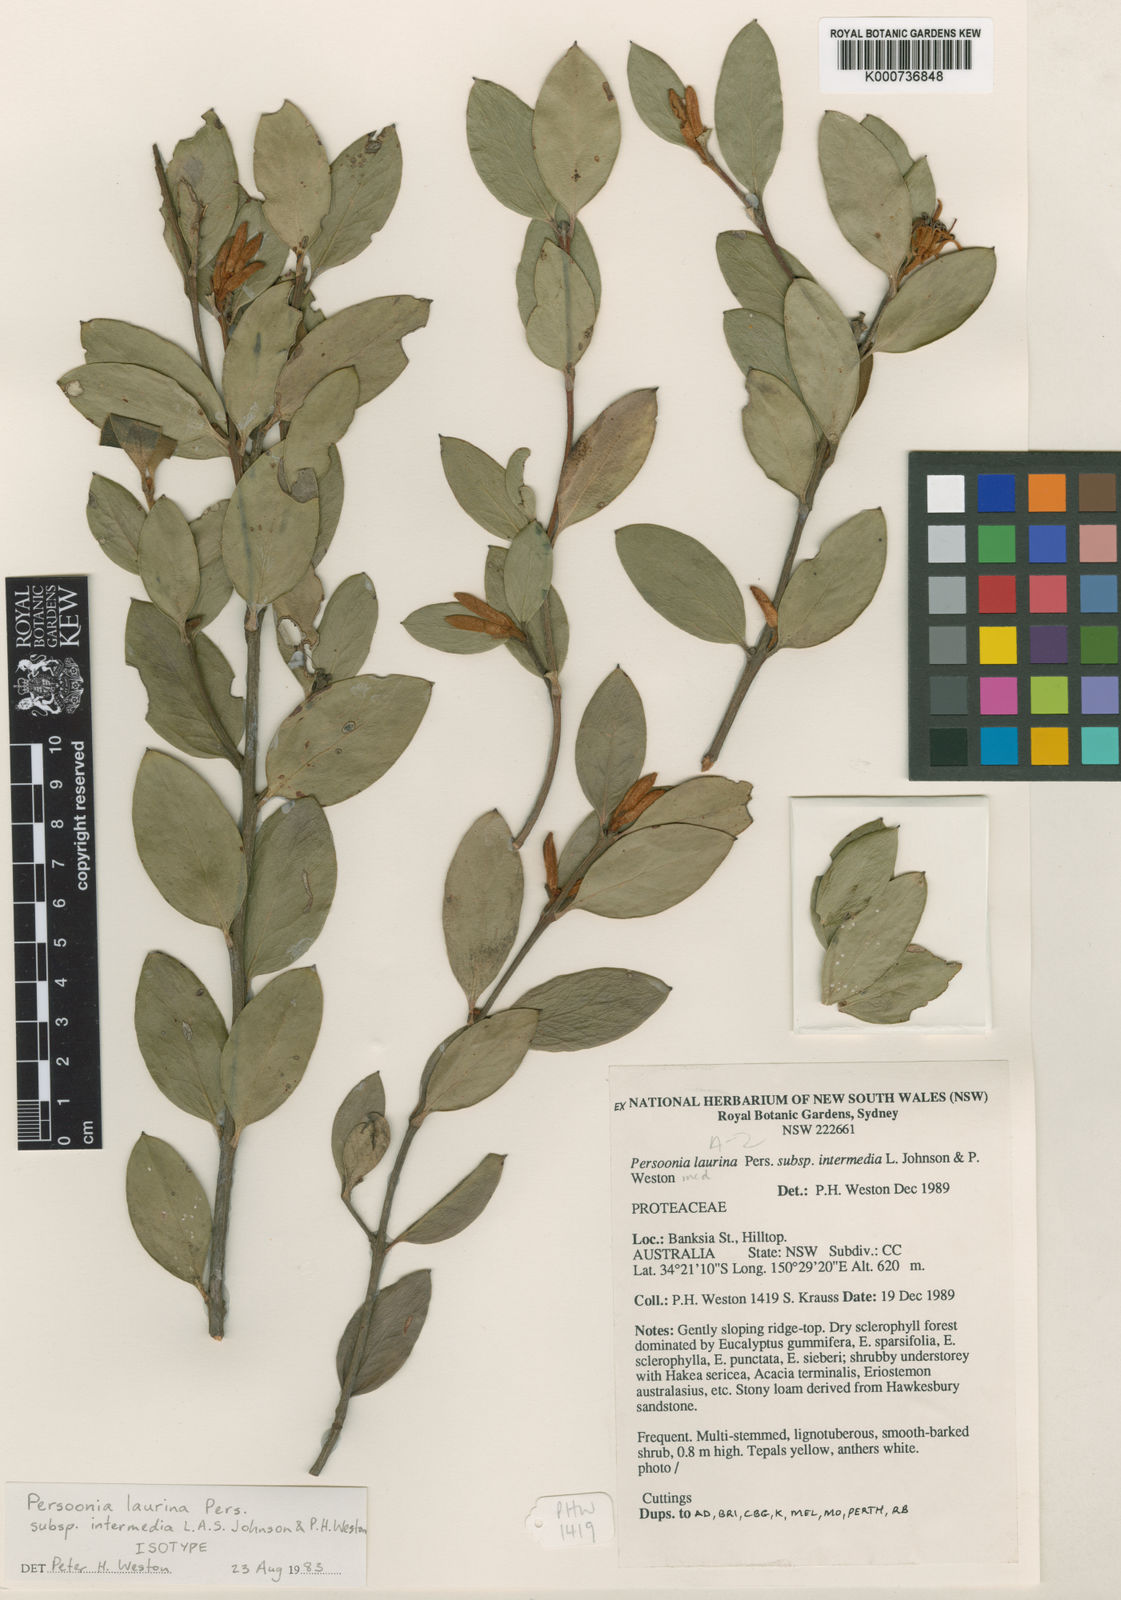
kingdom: Plantae
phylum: Tracheophyta
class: Magnoliopsida
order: Proteales
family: Proteaceae
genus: Persoonia
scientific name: Persoonia laurina
